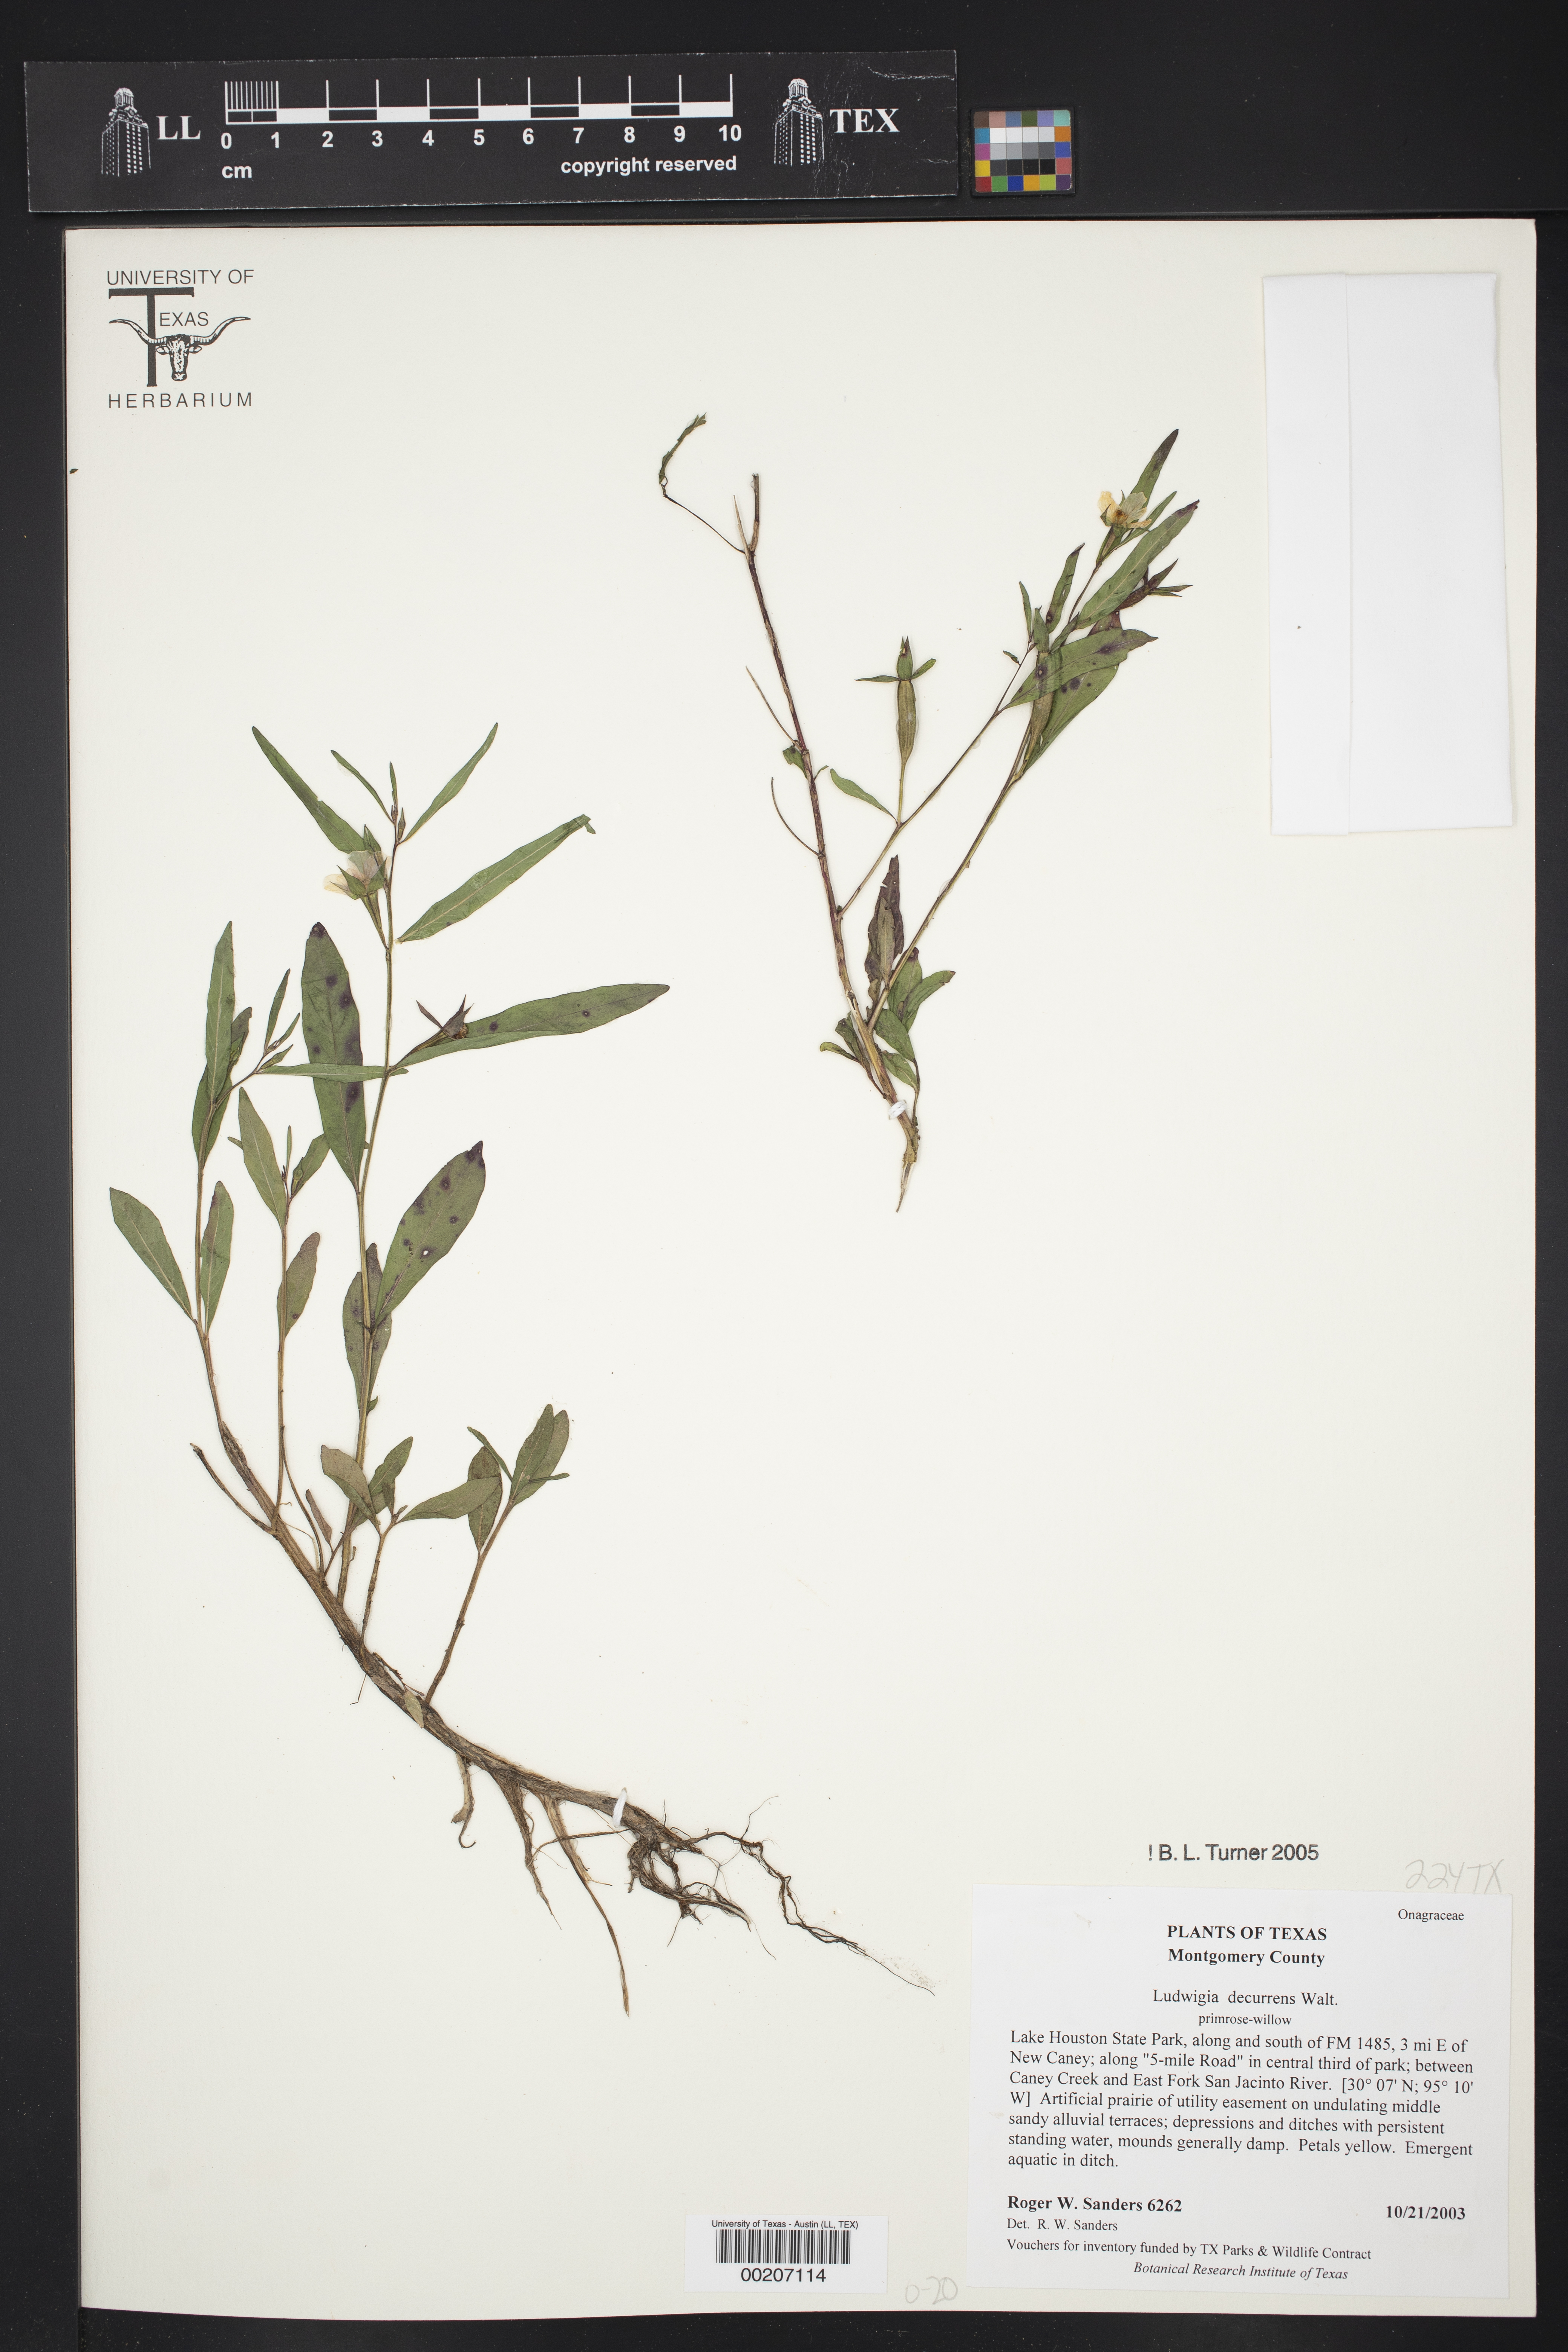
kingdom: Plantae
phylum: Tracheophyta
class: Magnoliopsida
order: Myrtales
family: Onagraceae
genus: Ludwigia
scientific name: Ludwigia decurrens
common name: Winged water-primrose
